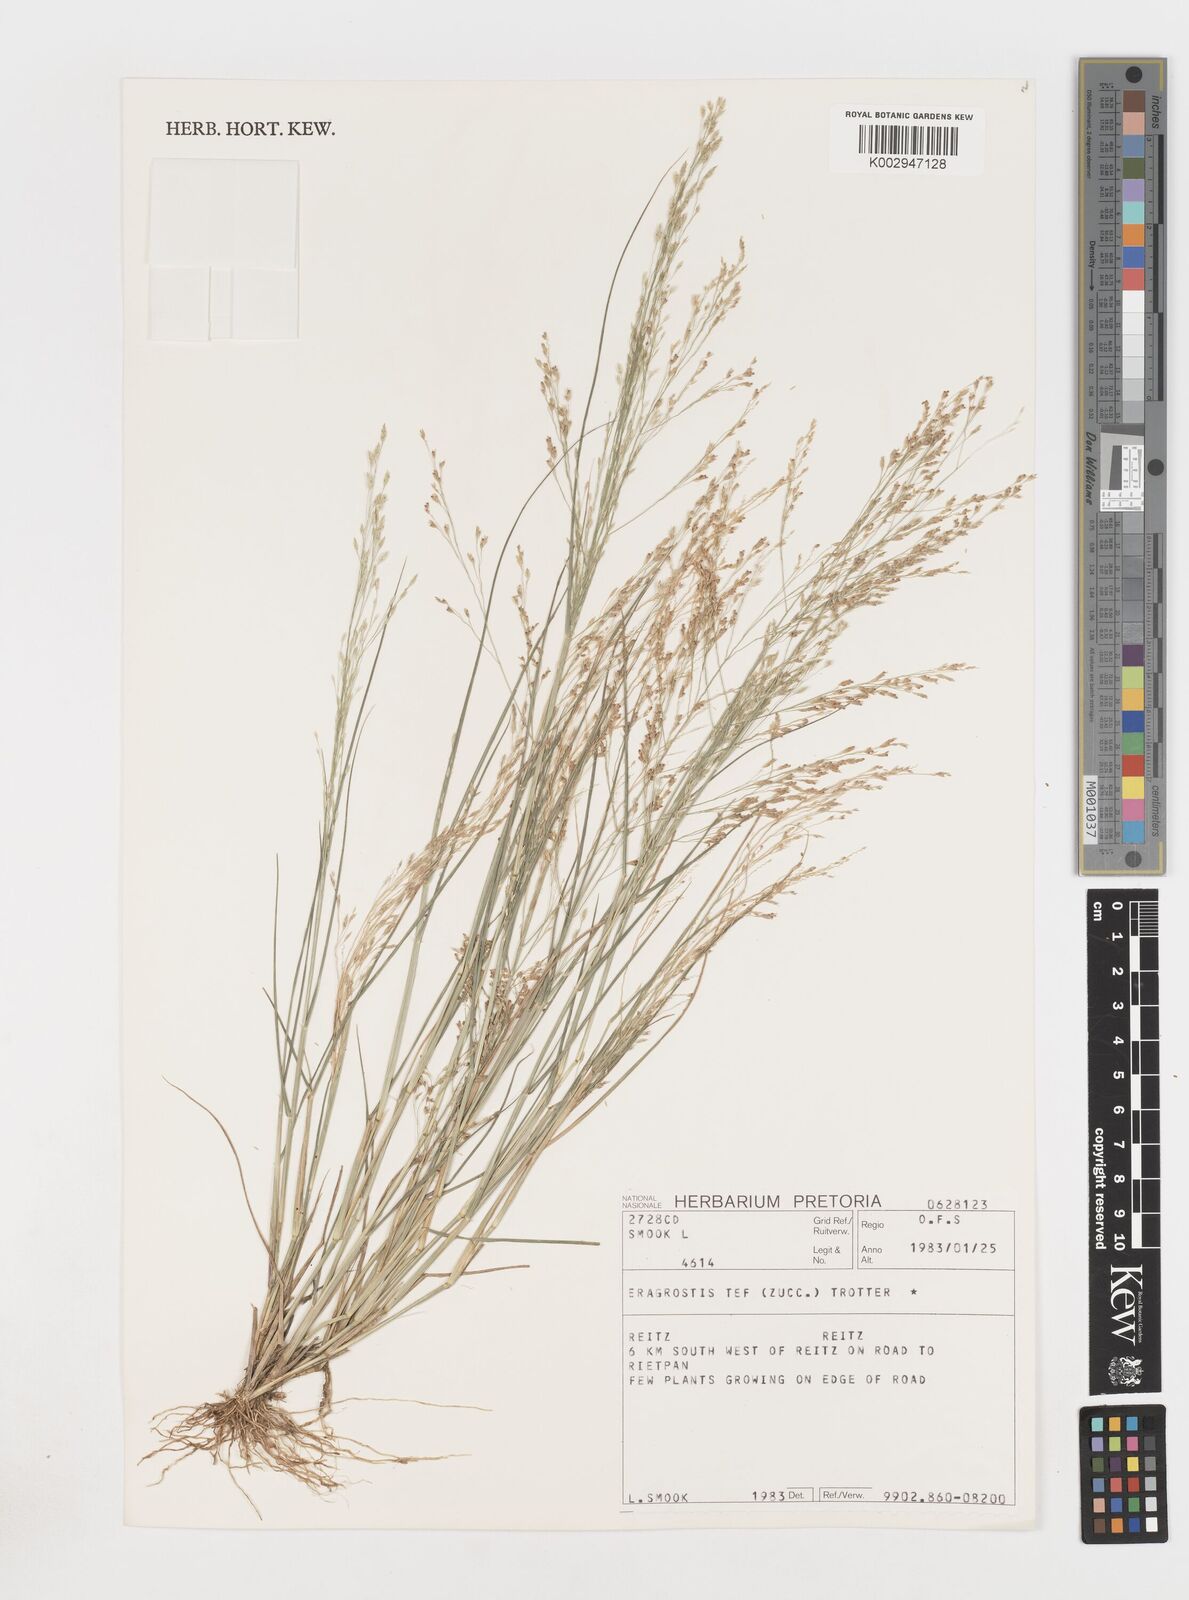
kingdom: Plantae
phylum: Tracheophyta
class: Liliopsida
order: Poales
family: Poaceae
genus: Eragrostis
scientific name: Eragrostis tef
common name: Teff
